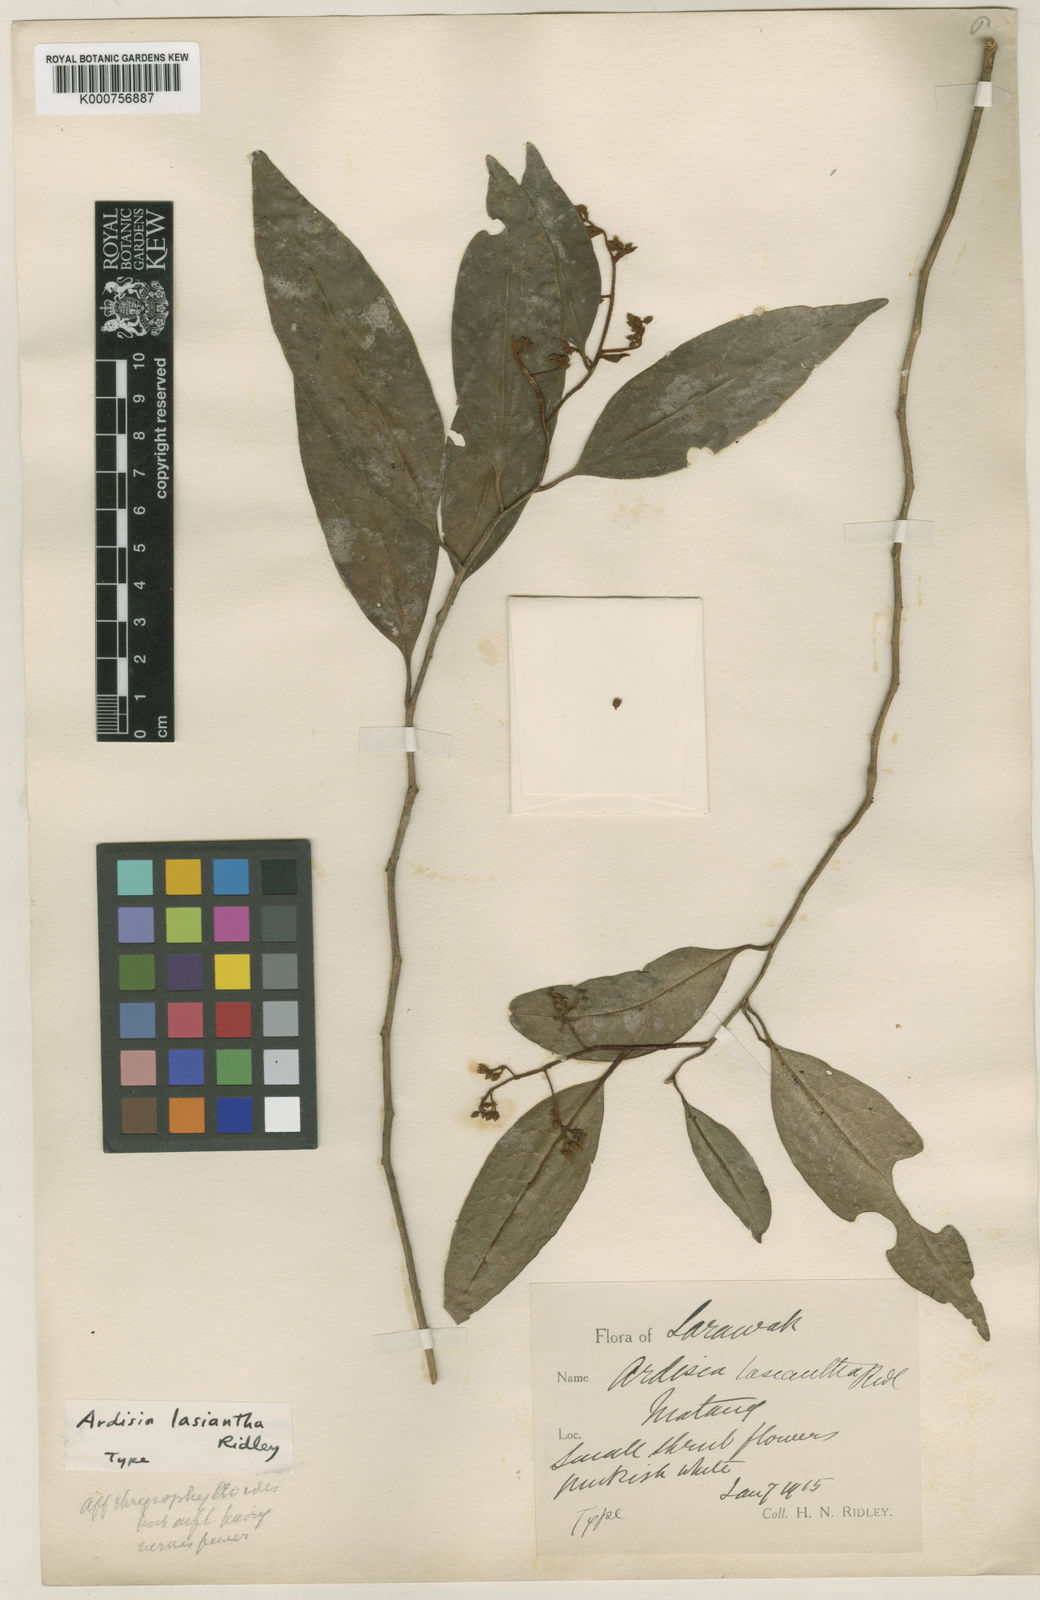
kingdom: Plantae
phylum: Tracheophyta
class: Magnoliopsida
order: Ericales
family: Primulaceae
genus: Ardisia
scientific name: Ardisia
